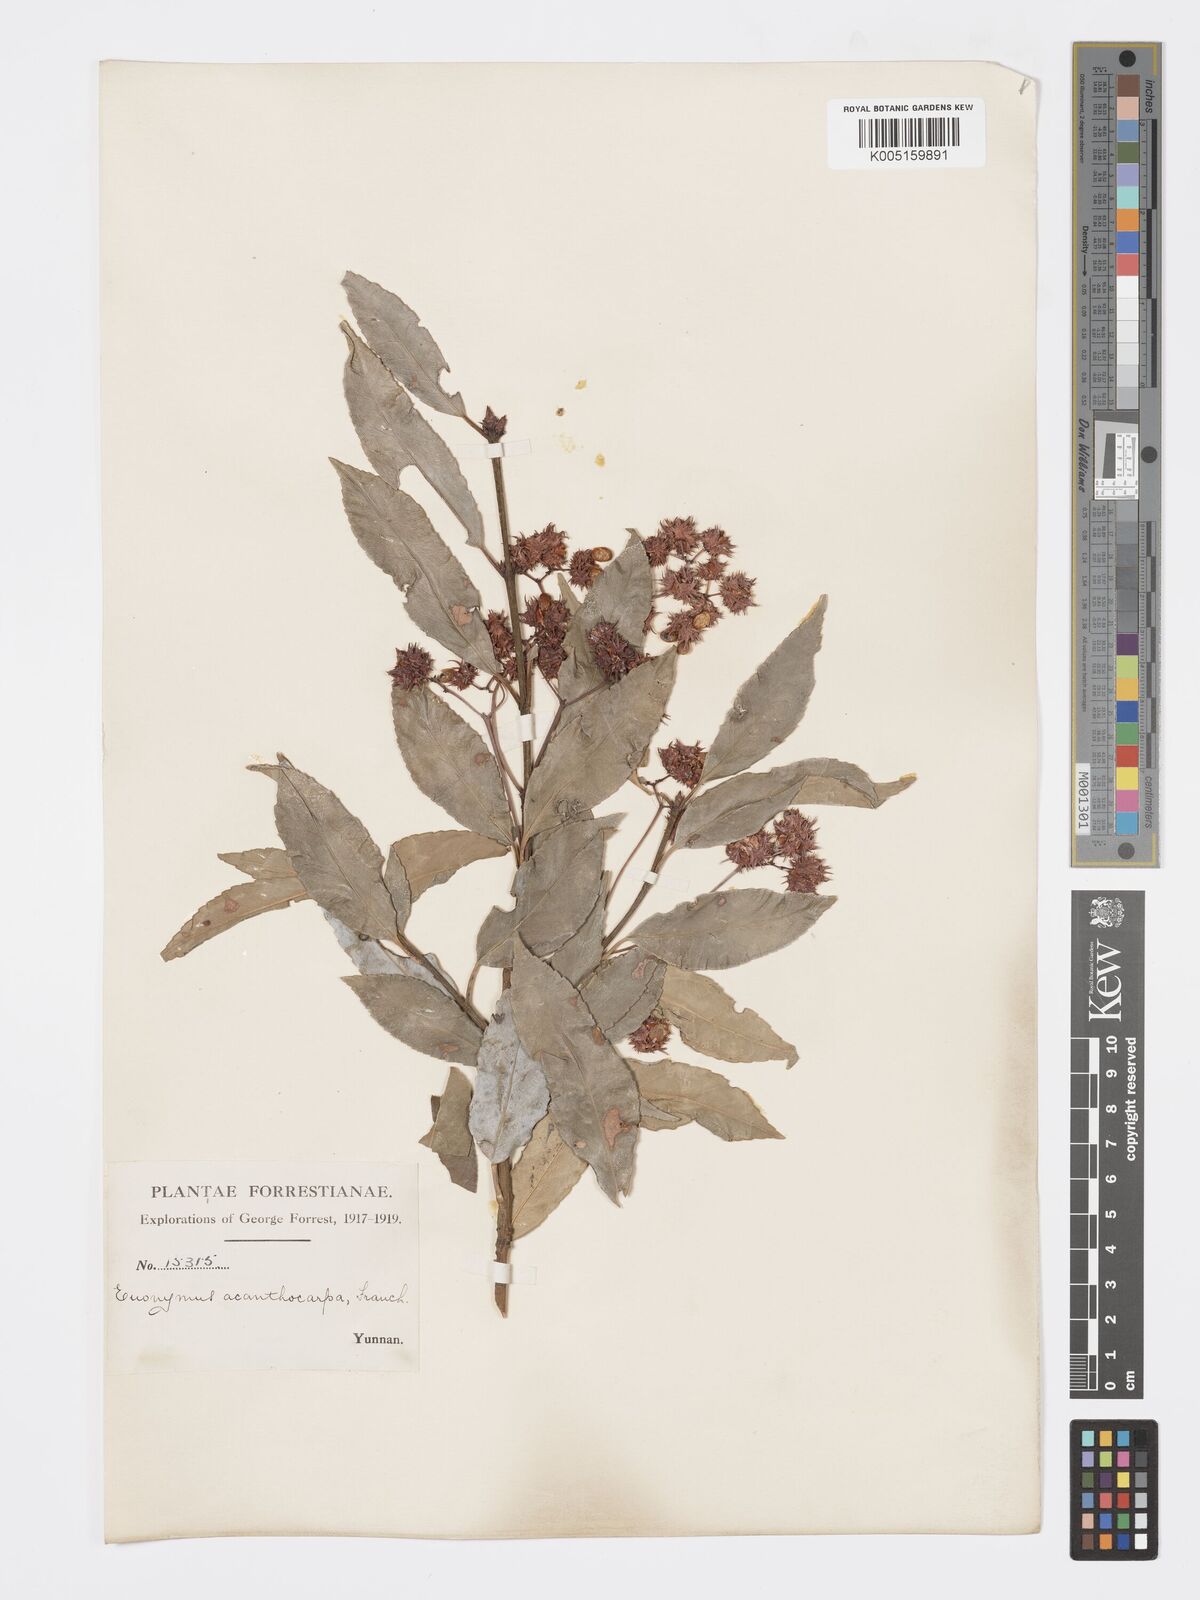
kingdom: Plantae
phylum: Tracheophyta
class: Magnoliopsida
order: Celastrales
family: Celastraceae
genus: Euonymus
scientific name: Euonymus acanthocarpus
